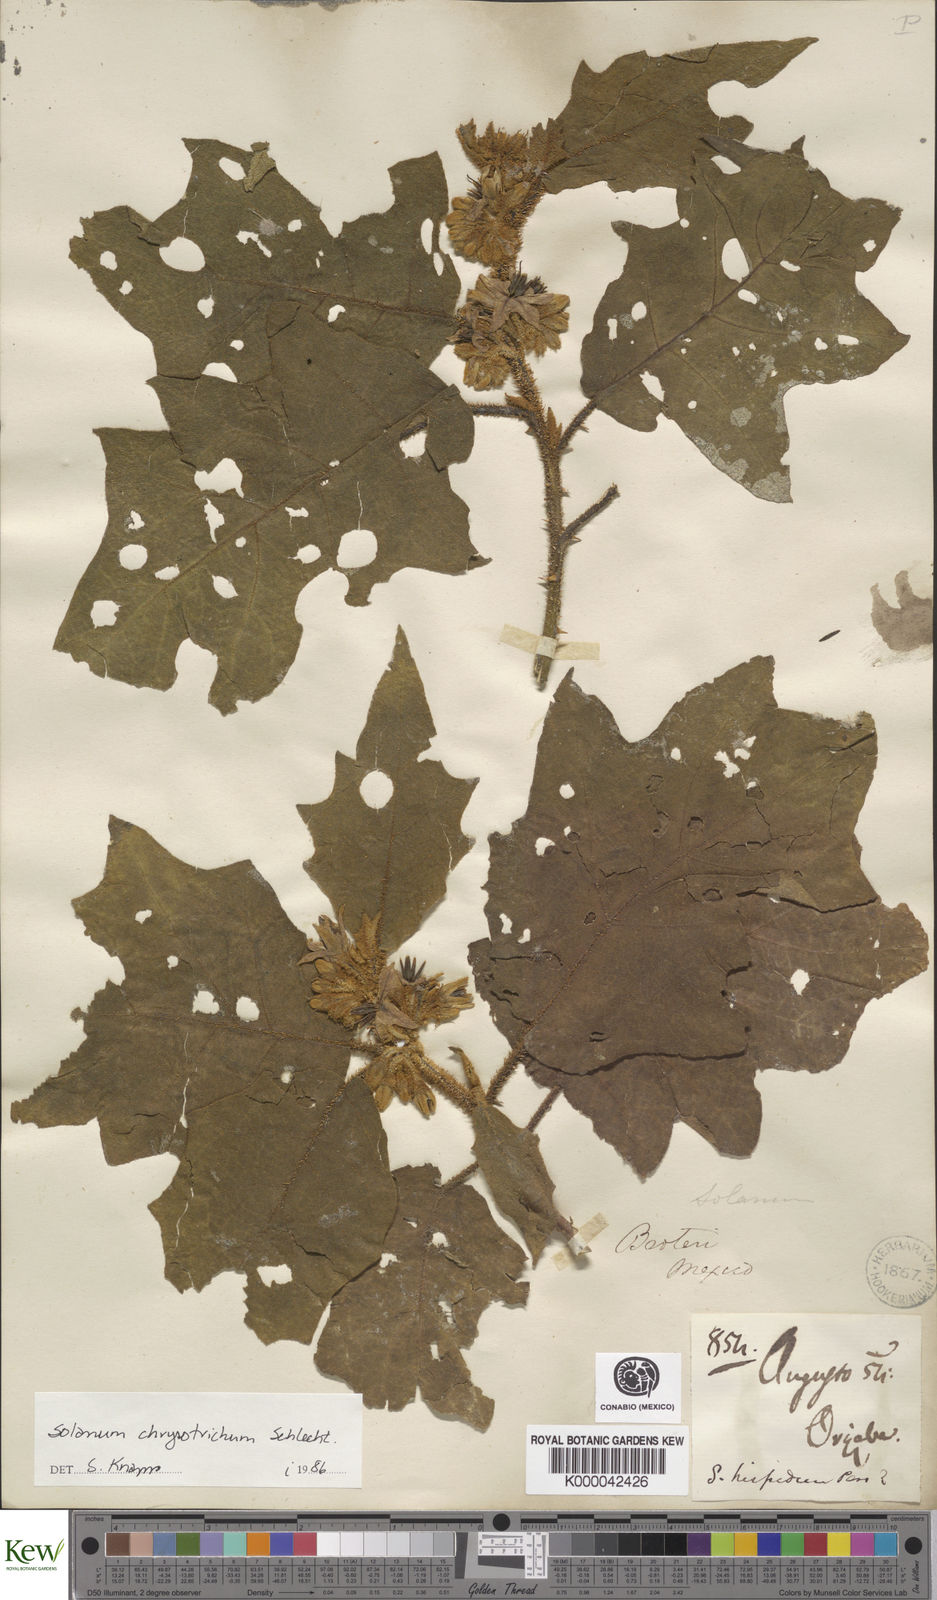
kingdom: Plantae
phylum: Tracheophyta
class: Magnoliopsida
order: Solanales
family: Solanaceae
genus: Solanum
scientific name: Solanum
